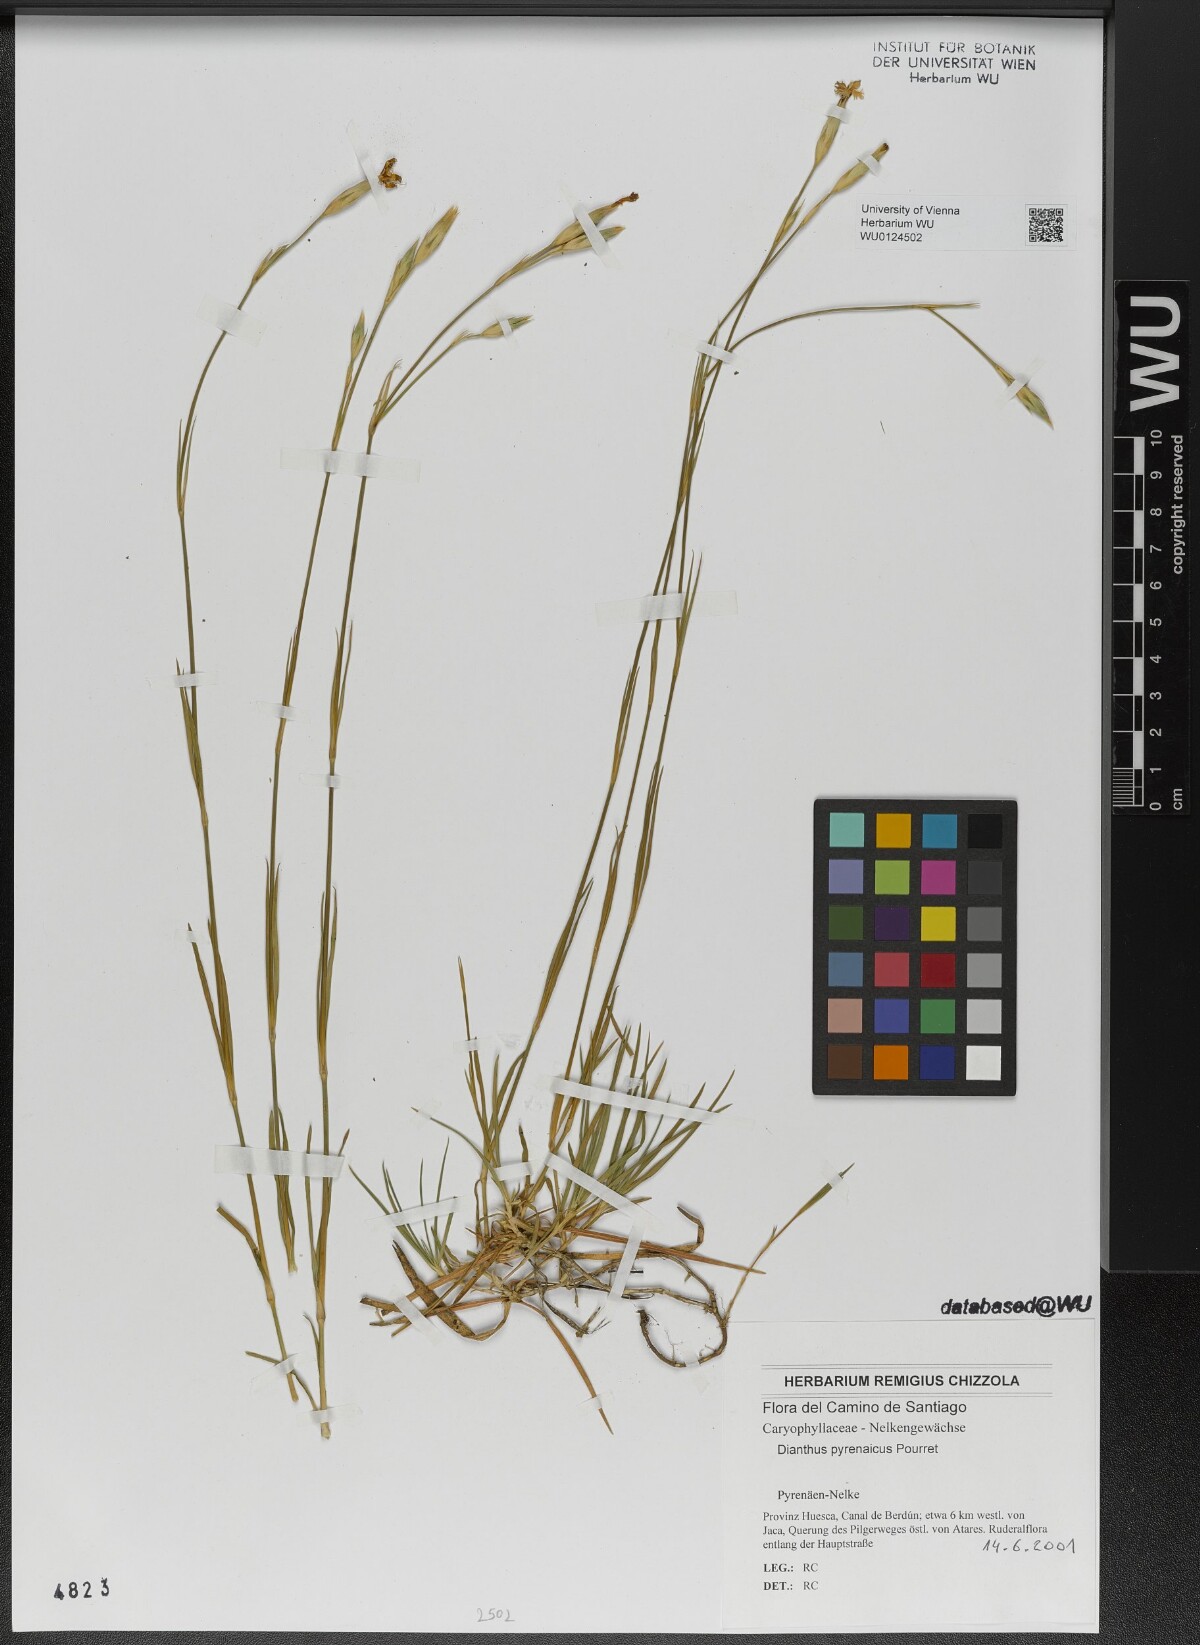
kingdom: Plantae
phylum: Tracheophyta
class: Magnoliopsida
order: Caryophyllales
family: Caryophyllaceae
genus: Dianthus
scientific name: Dianthus pyrenaicus
